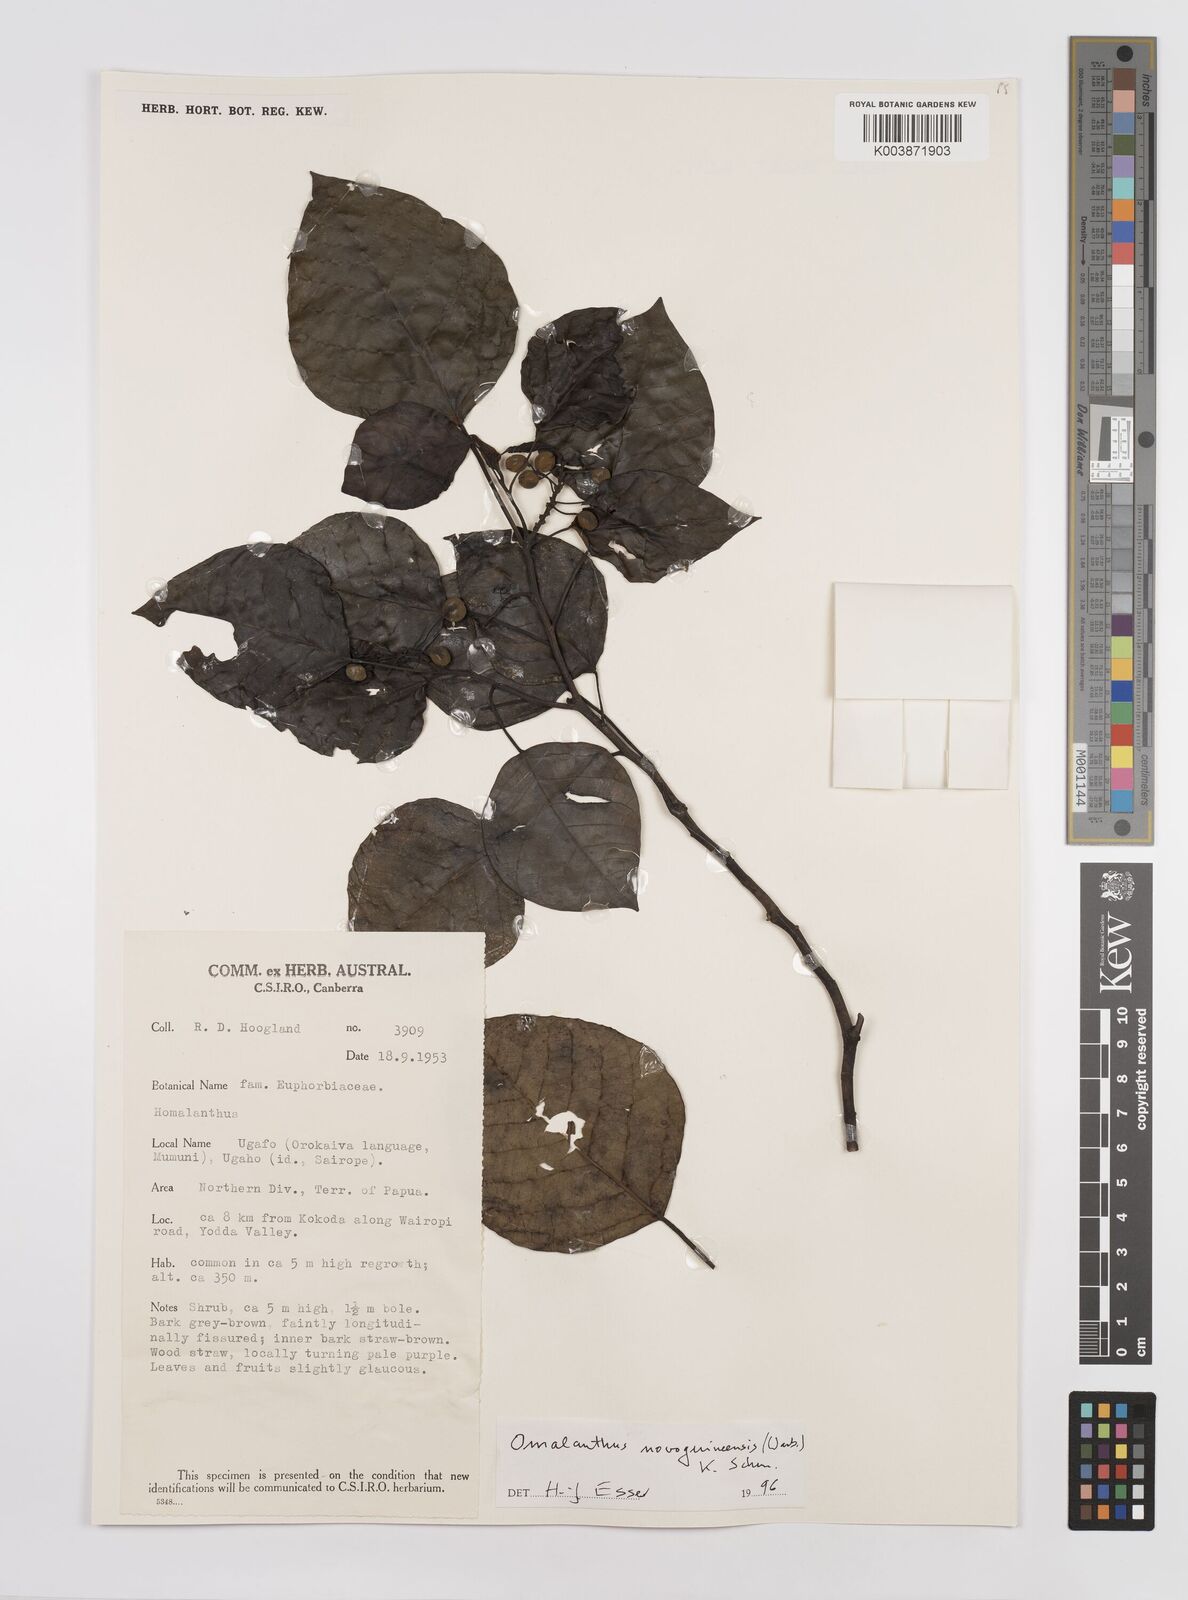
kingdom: Plantae
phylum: Tracheophyta
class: Magnoliopsida
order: Malpighiales
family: Euphorbiaceae
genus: Homalanthus
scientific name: Homalanthus novoguineensis
